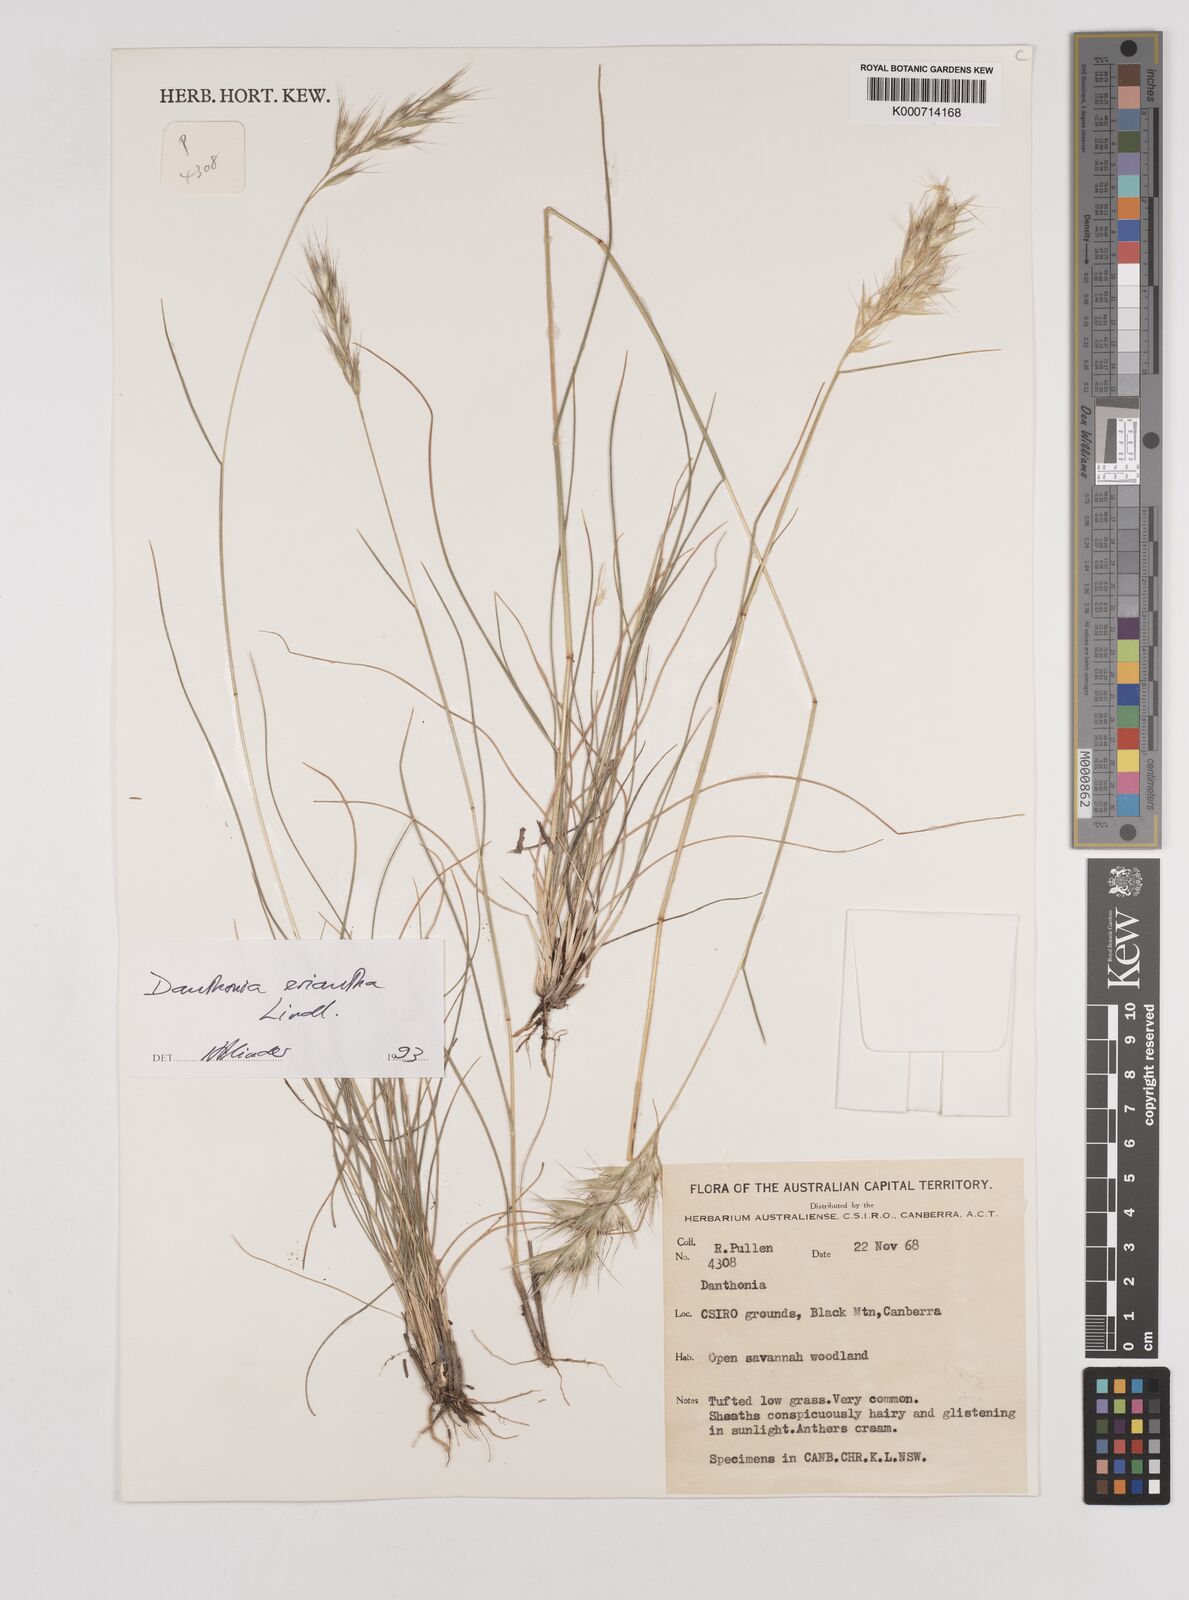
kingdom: Plantae
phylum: Tracheophyta
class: Liliopsida
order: Poales
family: Poaceae
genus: Rytidosperma
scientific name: Rytidosperma
